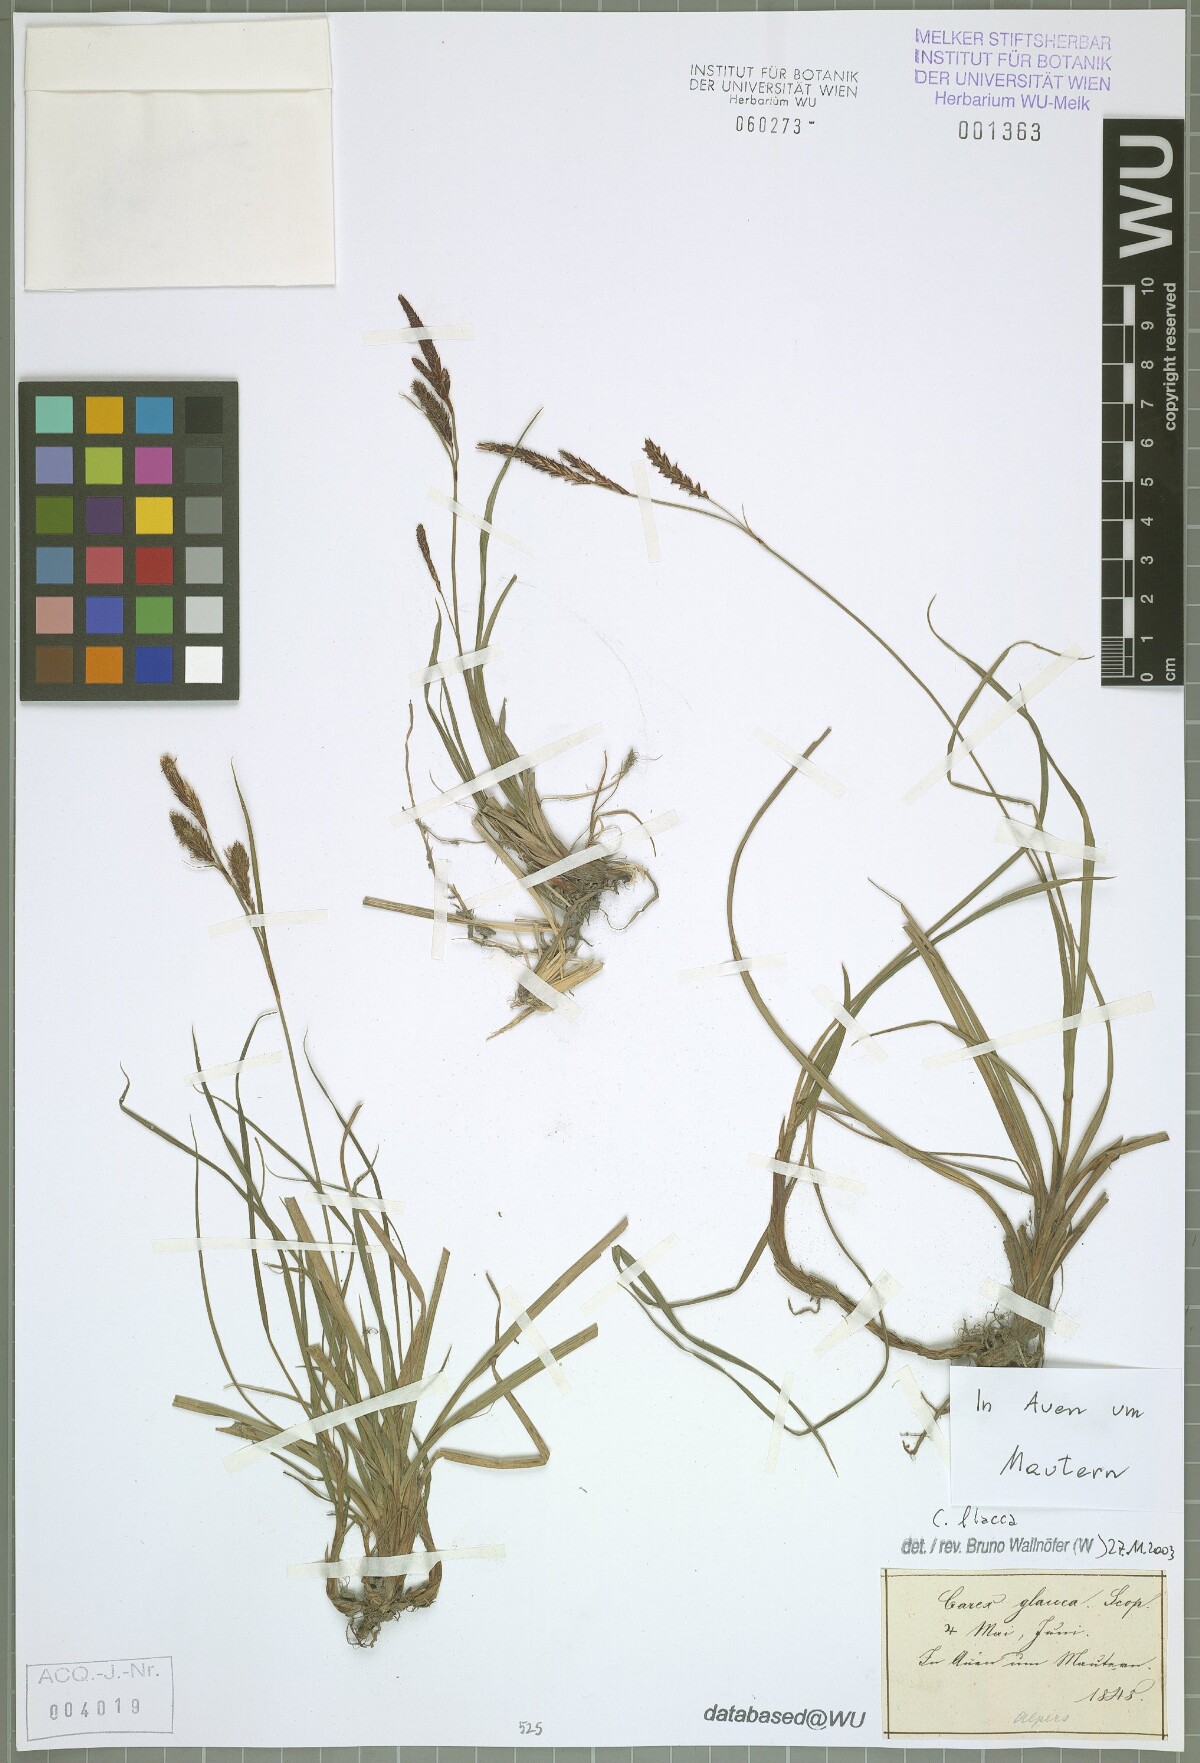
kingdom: Plantae
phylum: Tracheophyta
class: Liliopsida
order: Poales
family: Cyperaceae
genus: Carex
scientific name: Carex flacca
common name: Glaucous sedge
